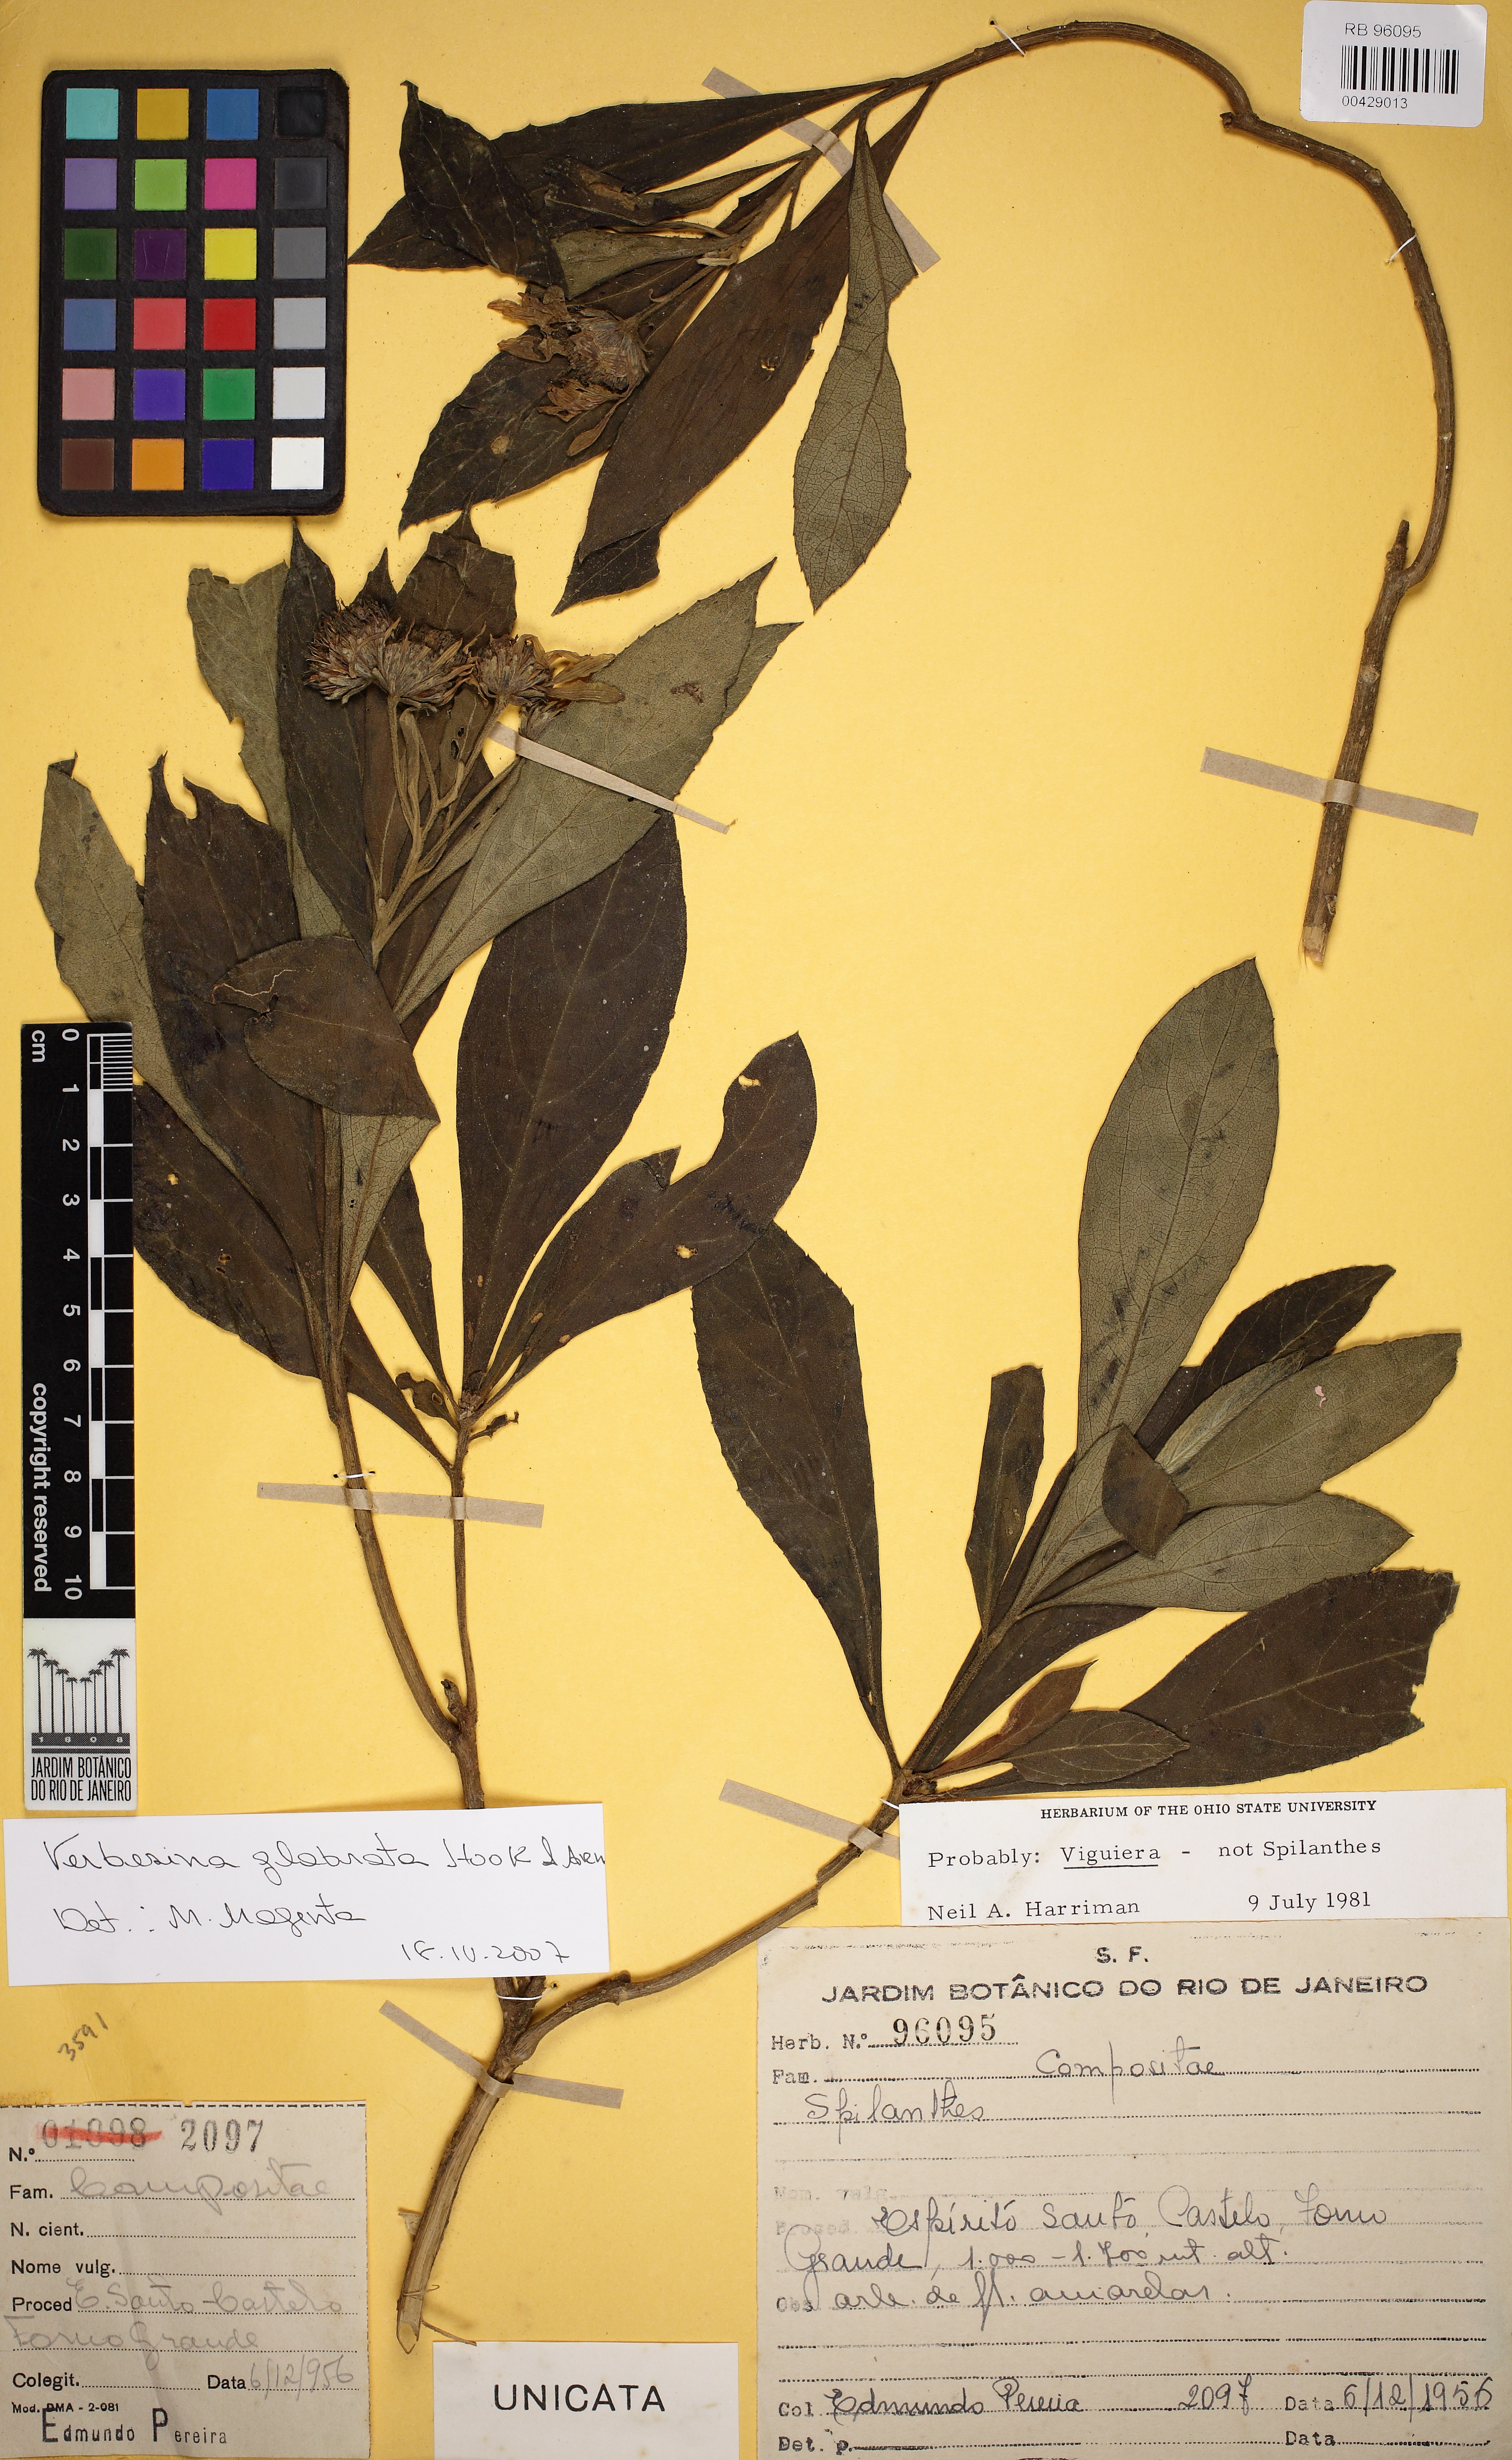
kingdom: Plantae
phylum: Tracheophyta
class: Magnoliopsida
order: Asterales
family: Asteraceae
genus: Verbesina
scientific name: Verbesina glabrata
